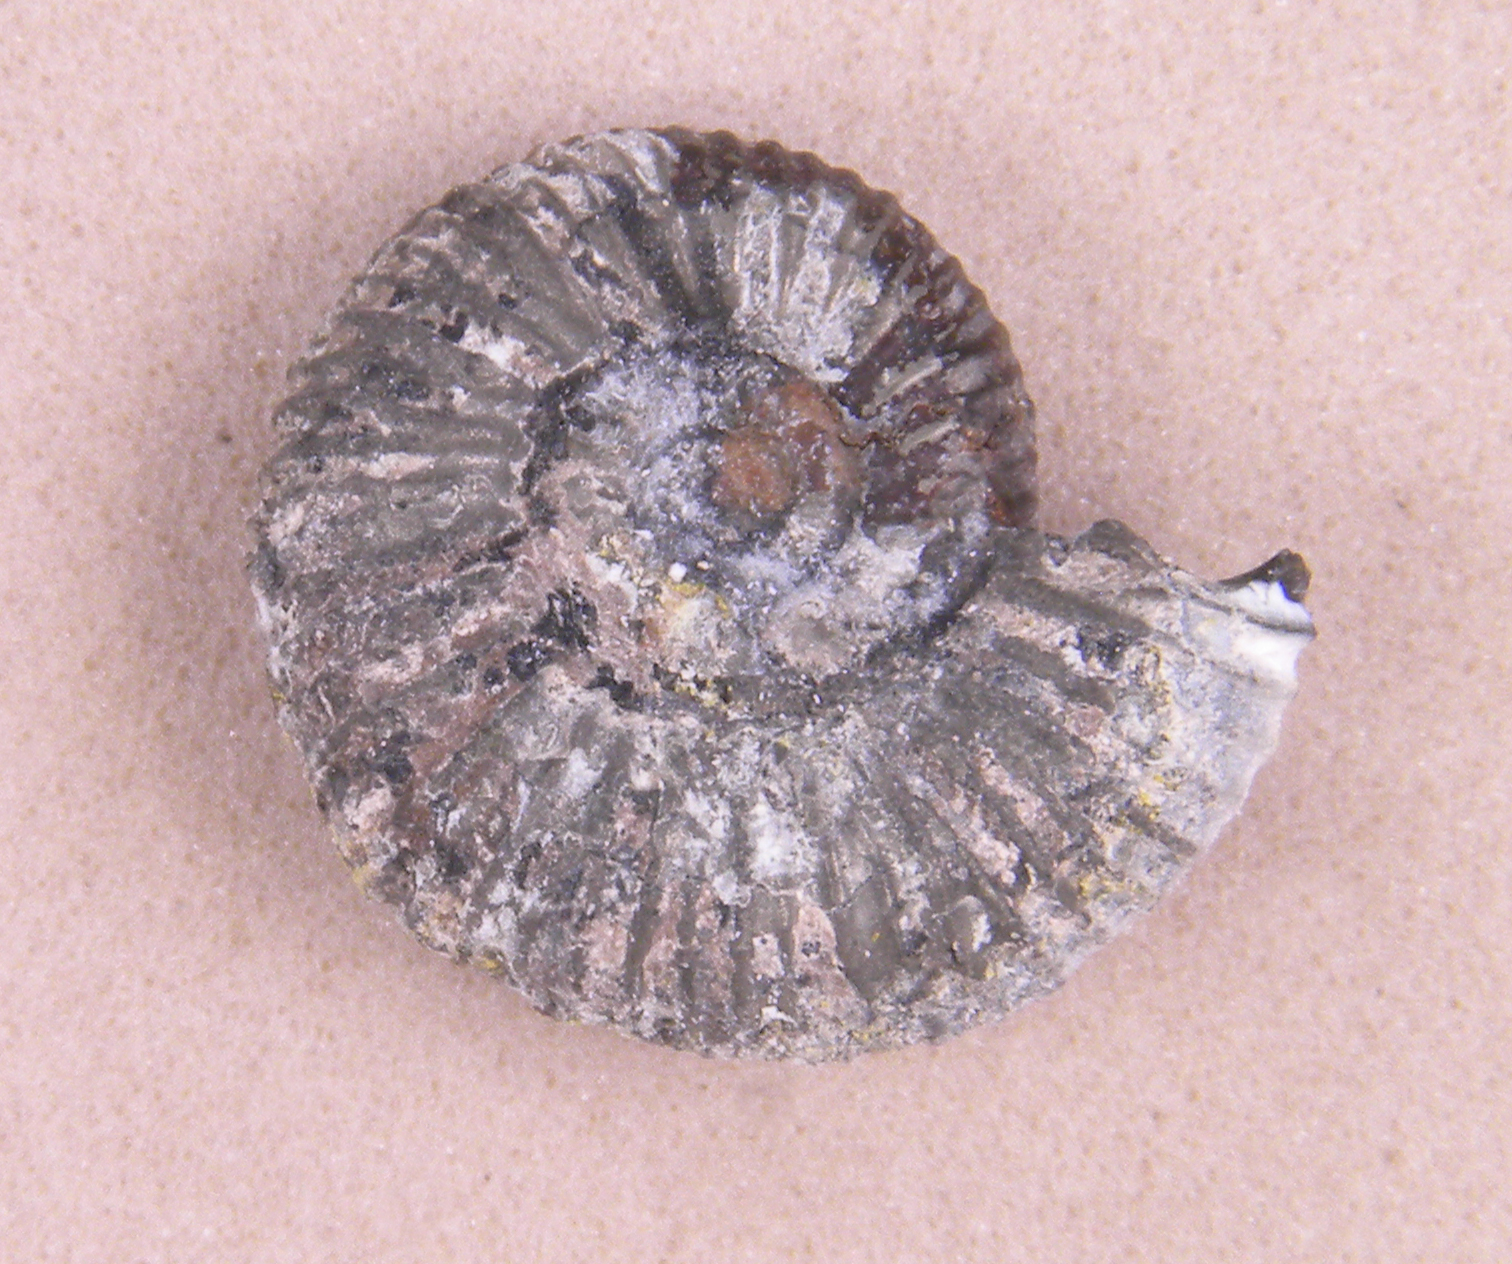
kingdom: Animalia
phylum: Mollusca
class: Cephalopoda
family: Dactylioceratidae
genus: Dactylioceras
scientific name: Dactylioceras
